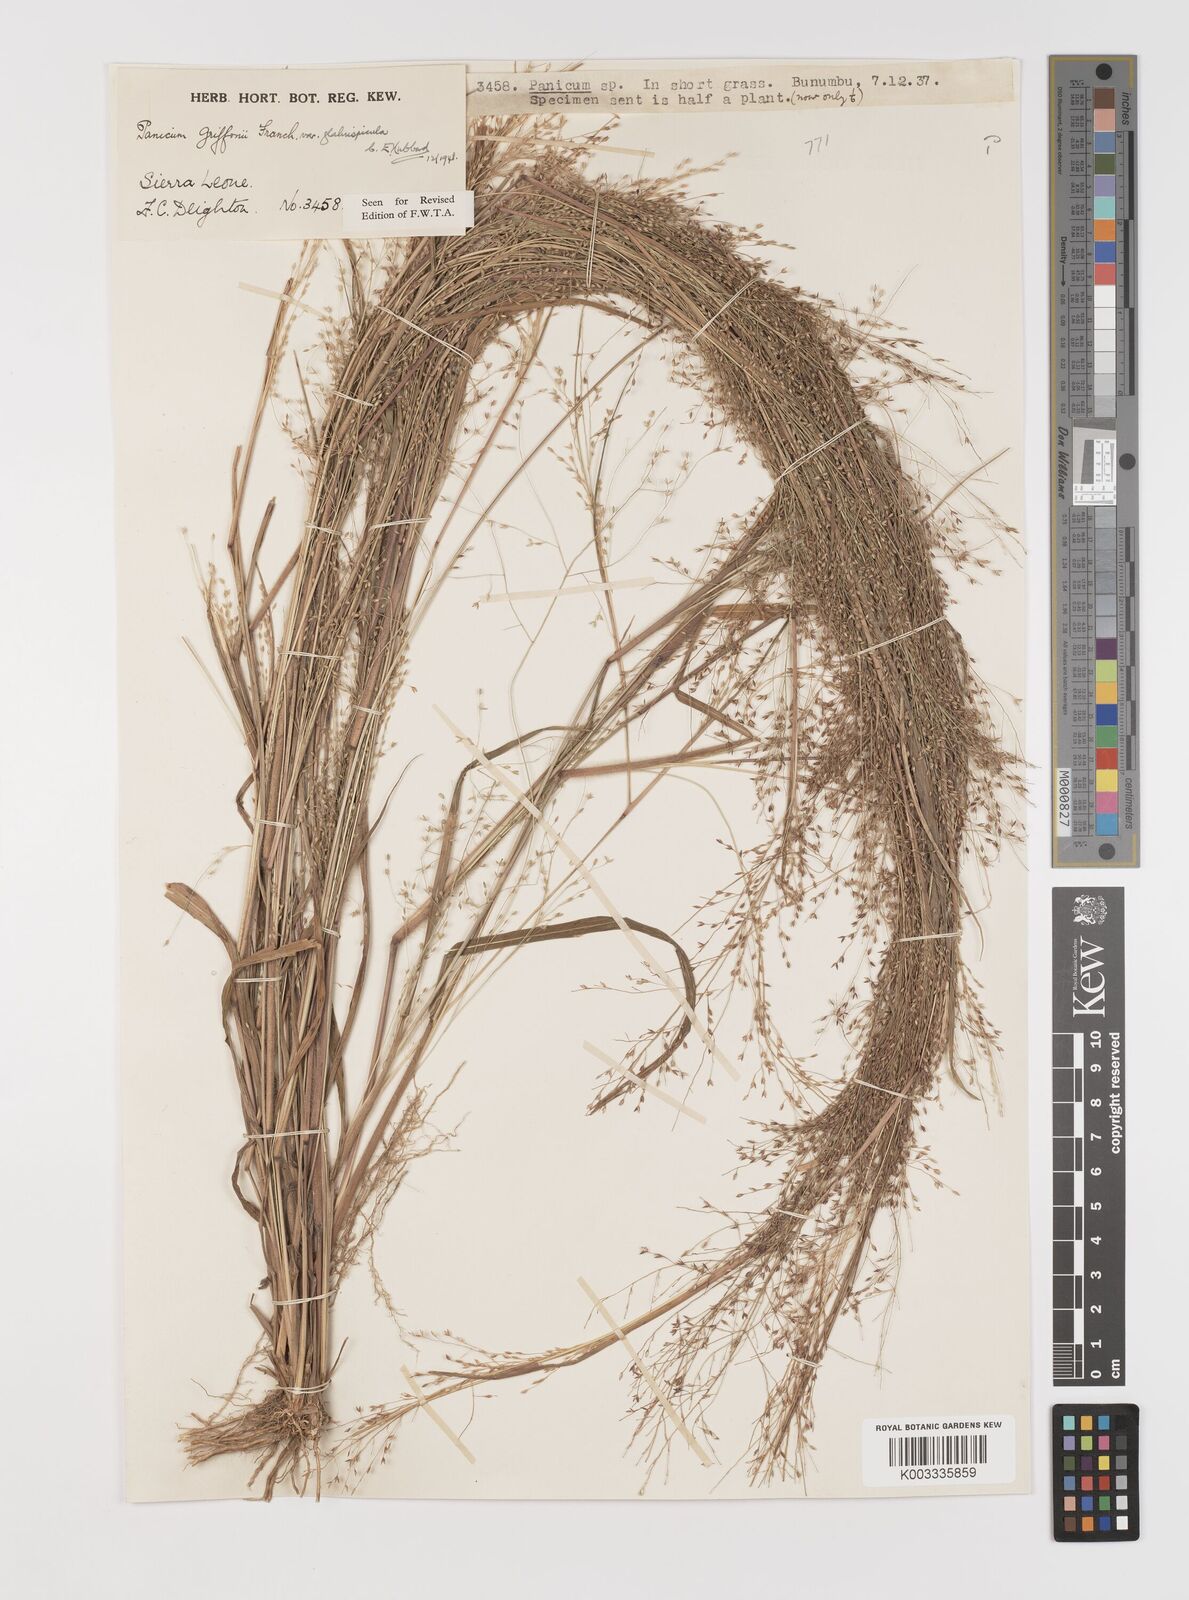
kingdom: Plantae
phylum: Tracheophyta
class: Liliopsida
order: Poales
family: Poaceae
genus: Panicum
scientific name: Panicum griffonii
